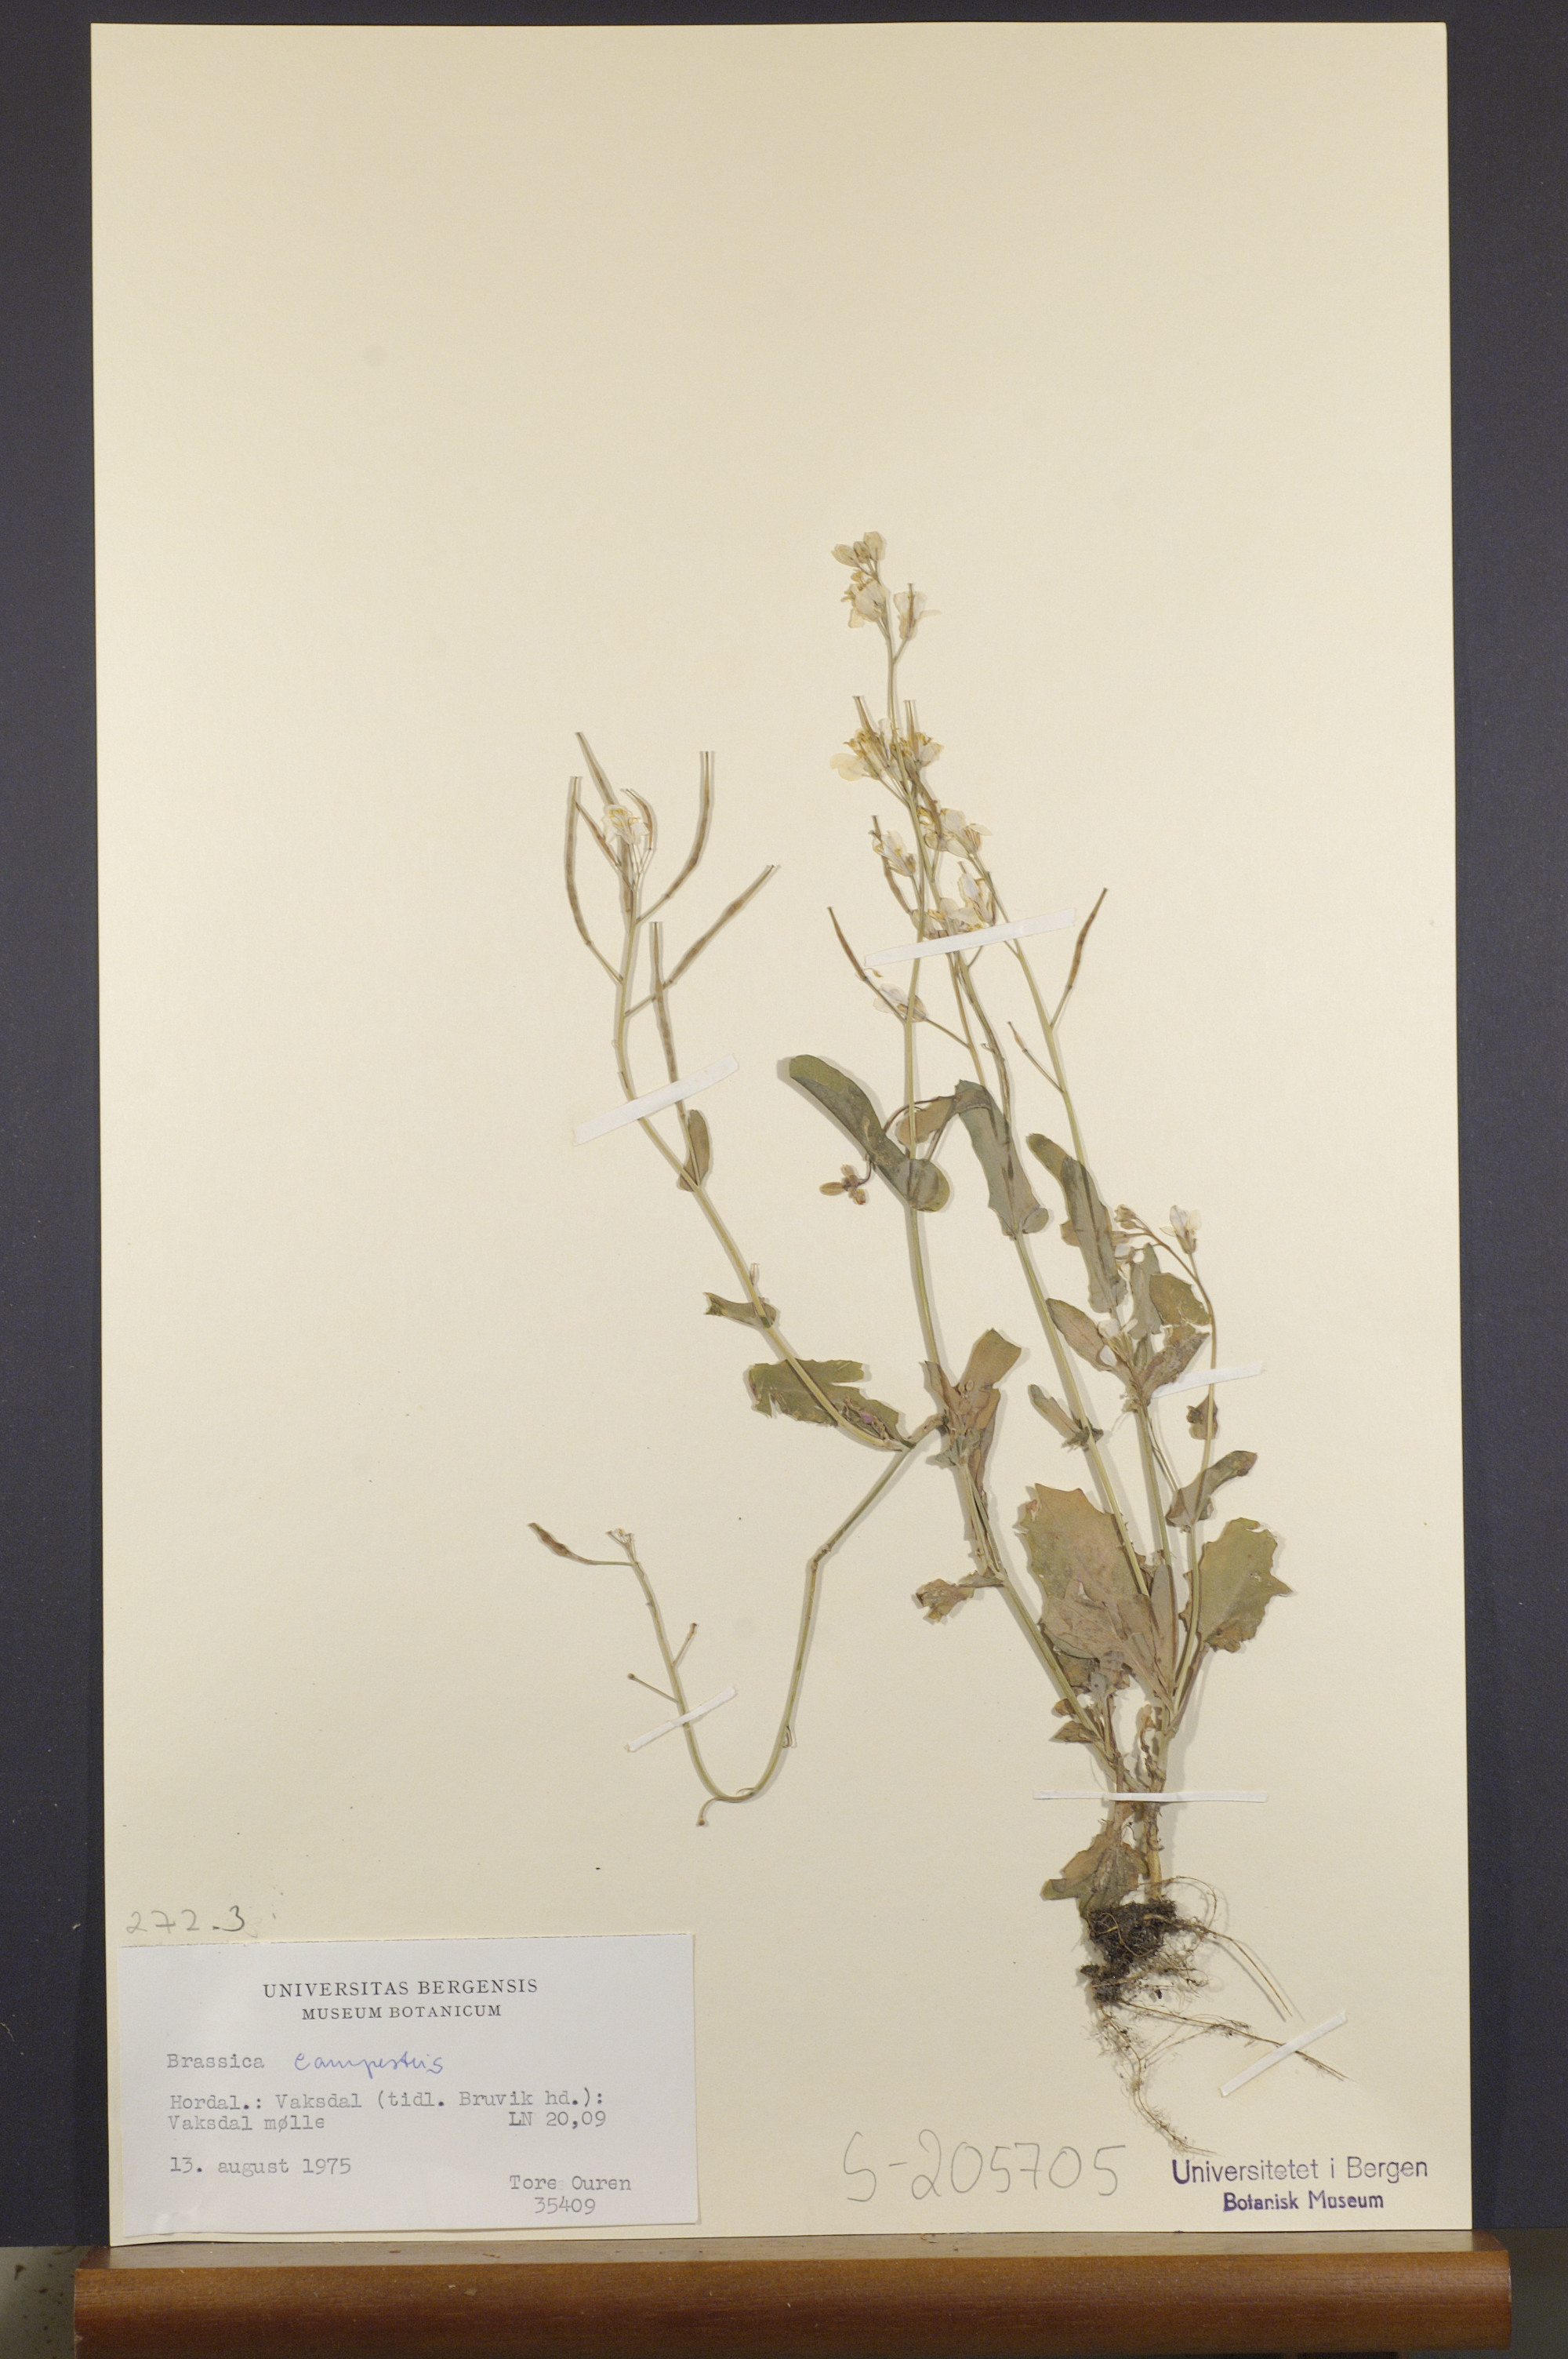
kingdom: Plantae
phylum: Tracheophyta
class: Magnoliopsida
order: Brassicales
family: Brassicaceae
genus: Brassica
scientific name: Brassica rapa
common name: Field mustard
